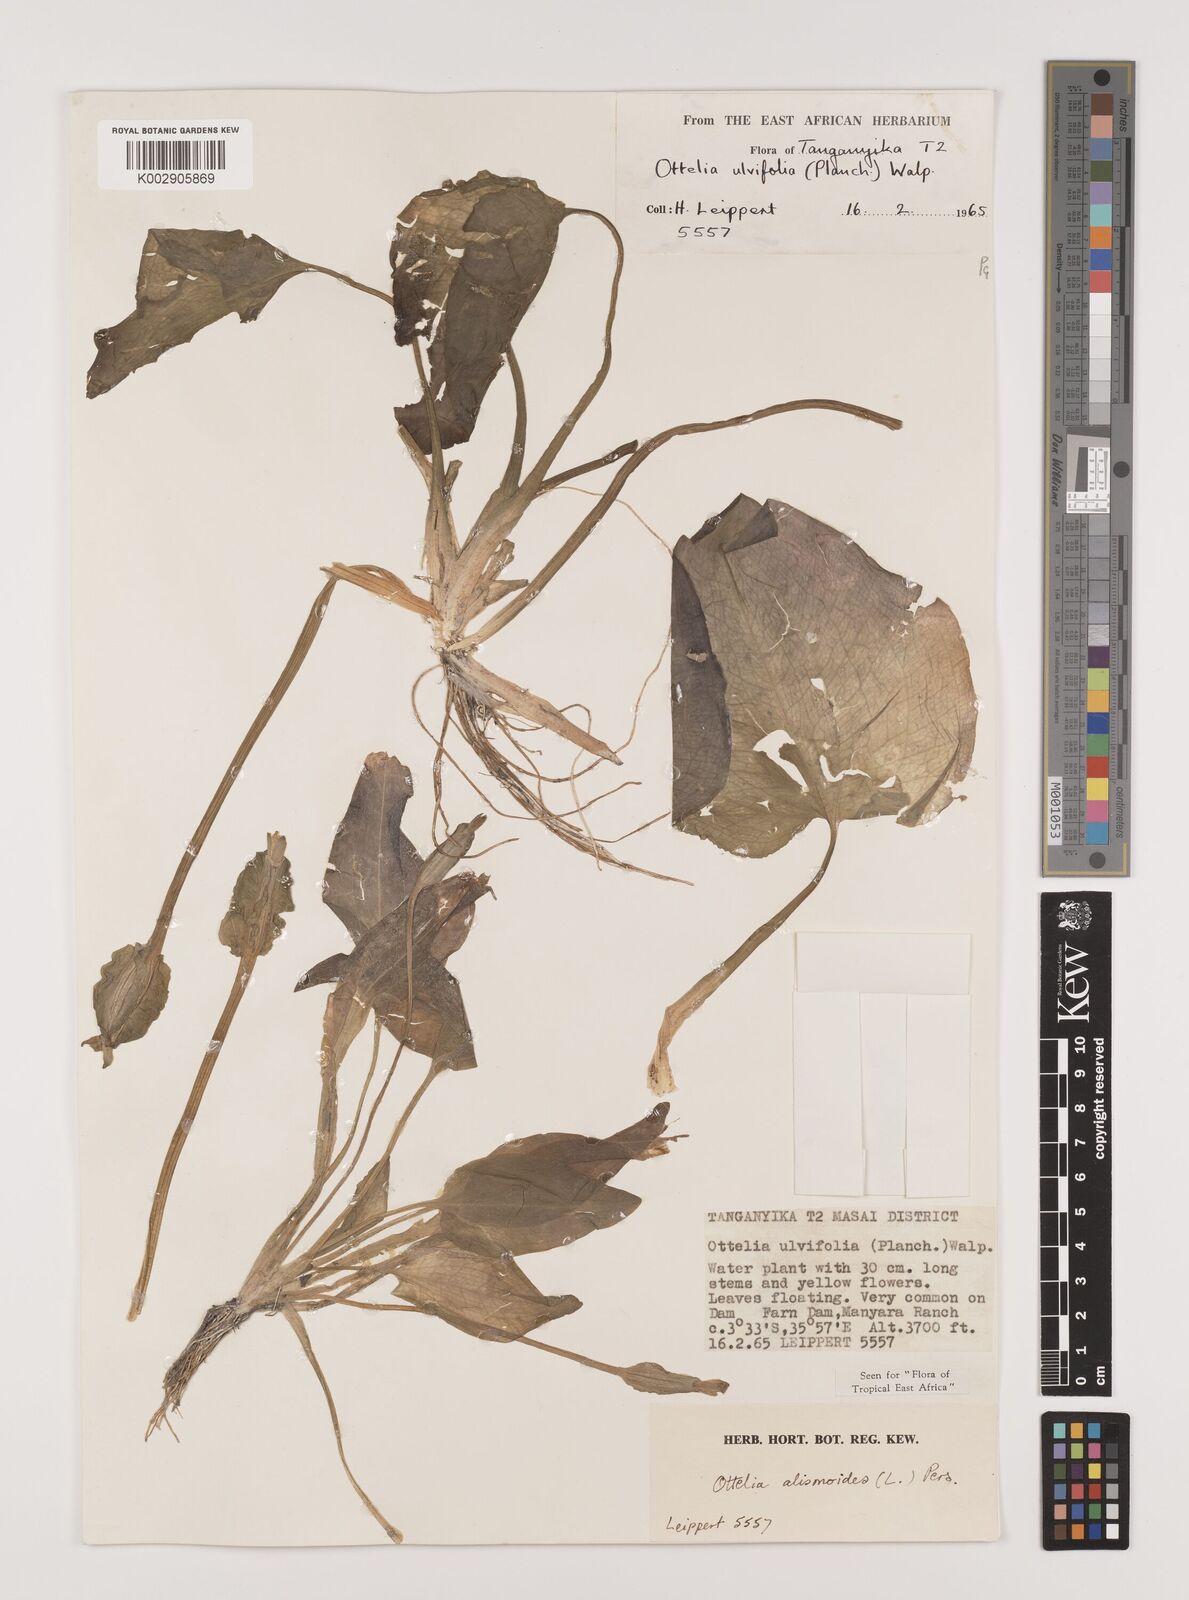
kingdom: Plantae
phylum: Tracheophyta
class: Liliopsida
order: Alismatales
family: Hydrocharitaceae
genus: Ottelia
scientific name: Ottelia alismoides
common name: Duck-lettuce
